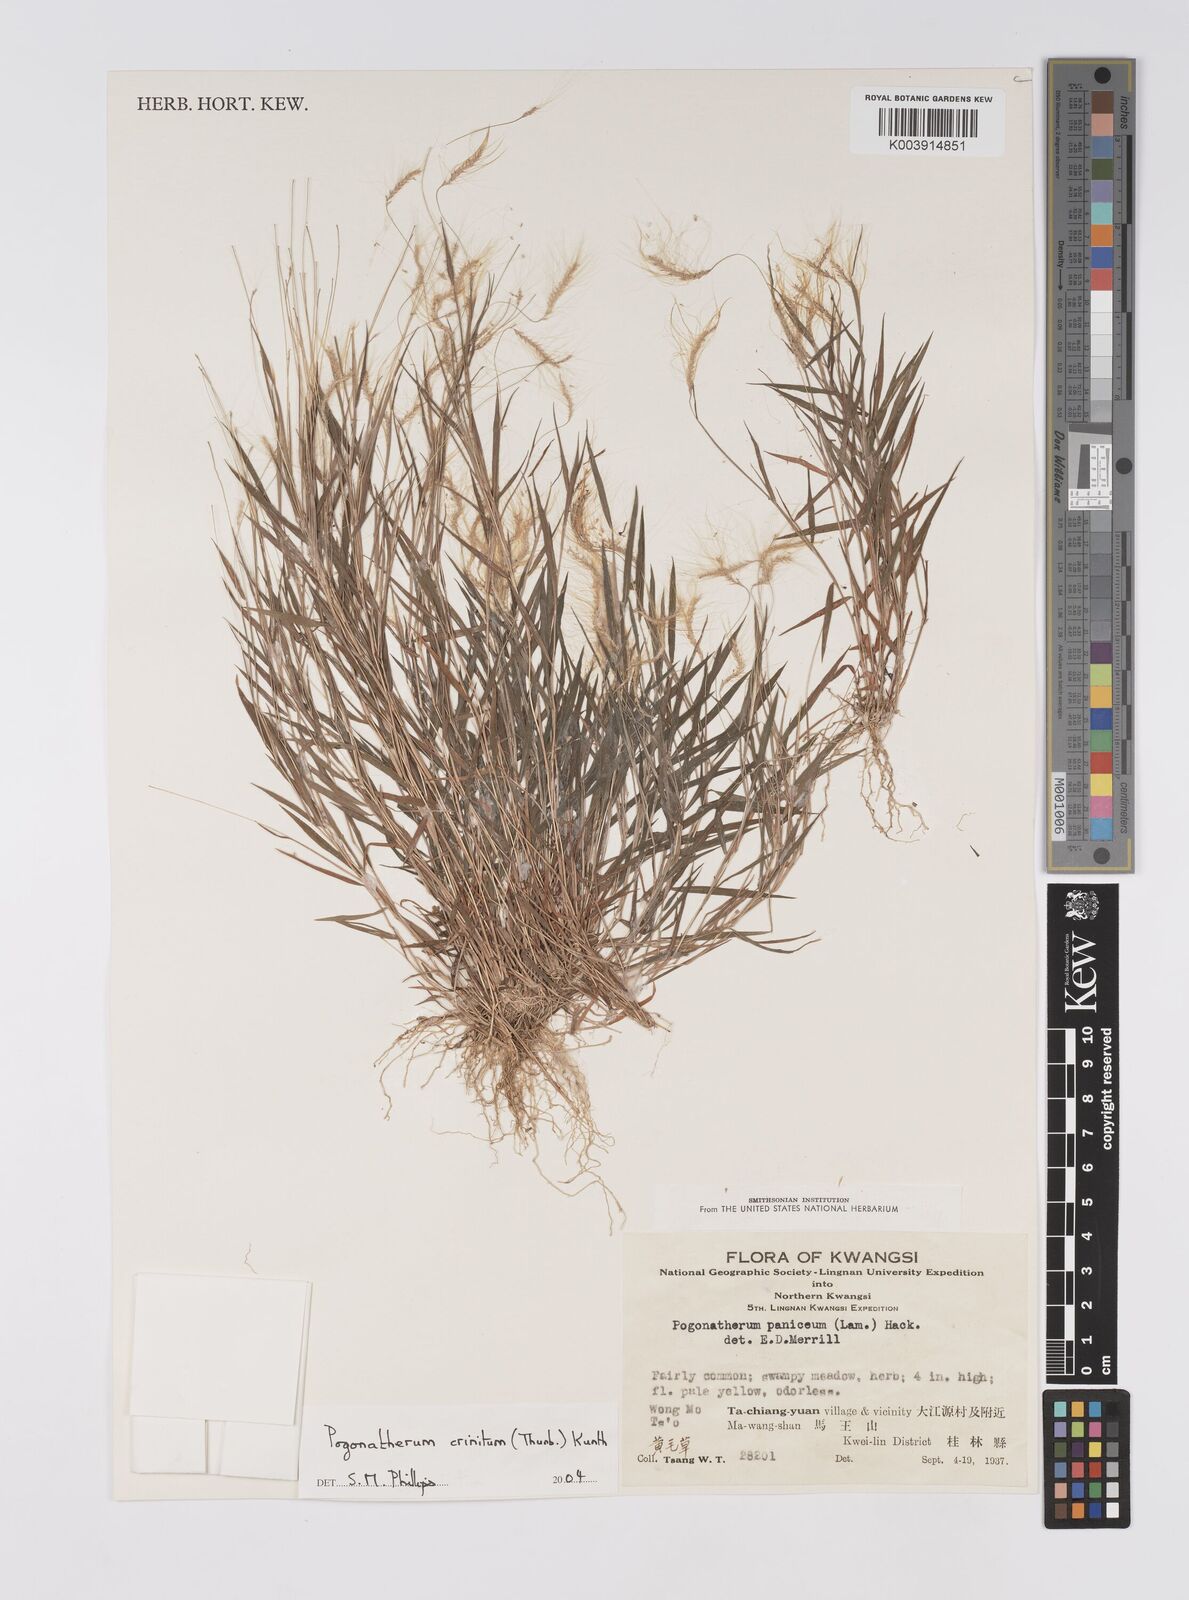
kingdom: Plantae
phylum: Tracheophyta
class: Liliopsida
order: Poales
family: Poaceae
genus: Pogonatherum
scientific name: Pogonatherum crinitum
